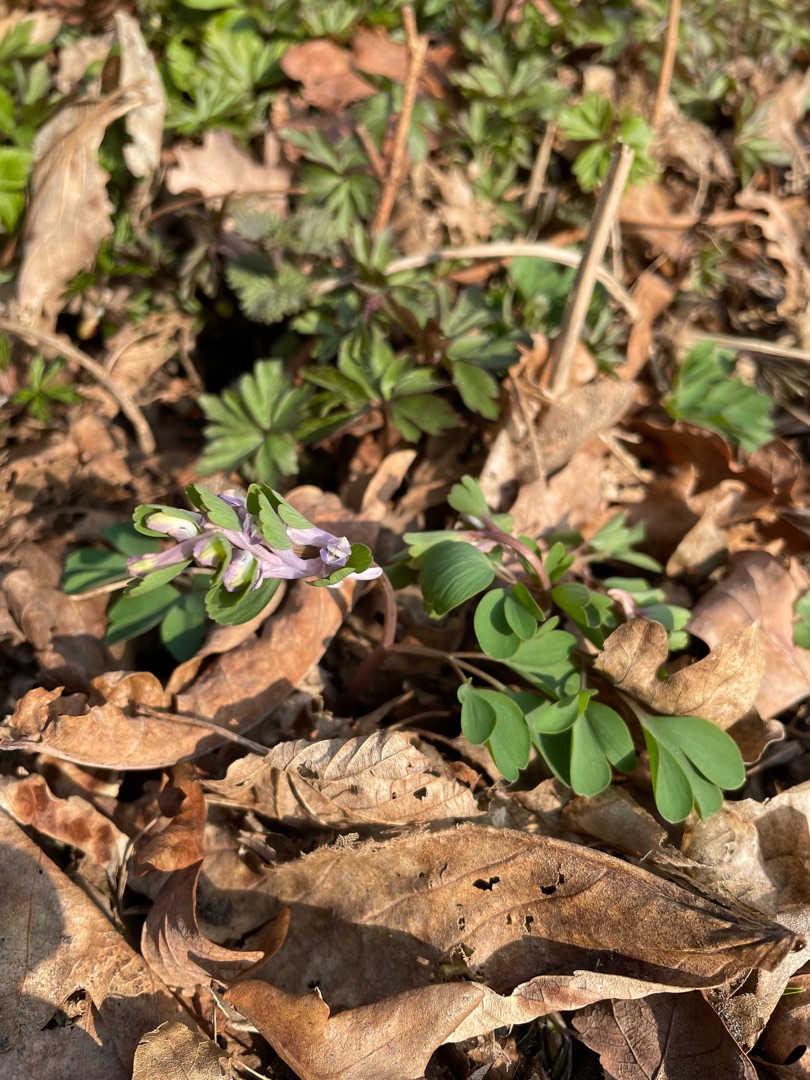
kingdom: Plantae
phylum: Tracheophyta
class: Magnoliopsida
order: Ranunculales
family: Papaveraceae
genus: Corydalis
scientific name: Corydalis pumila
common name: Finger-lærkespore
